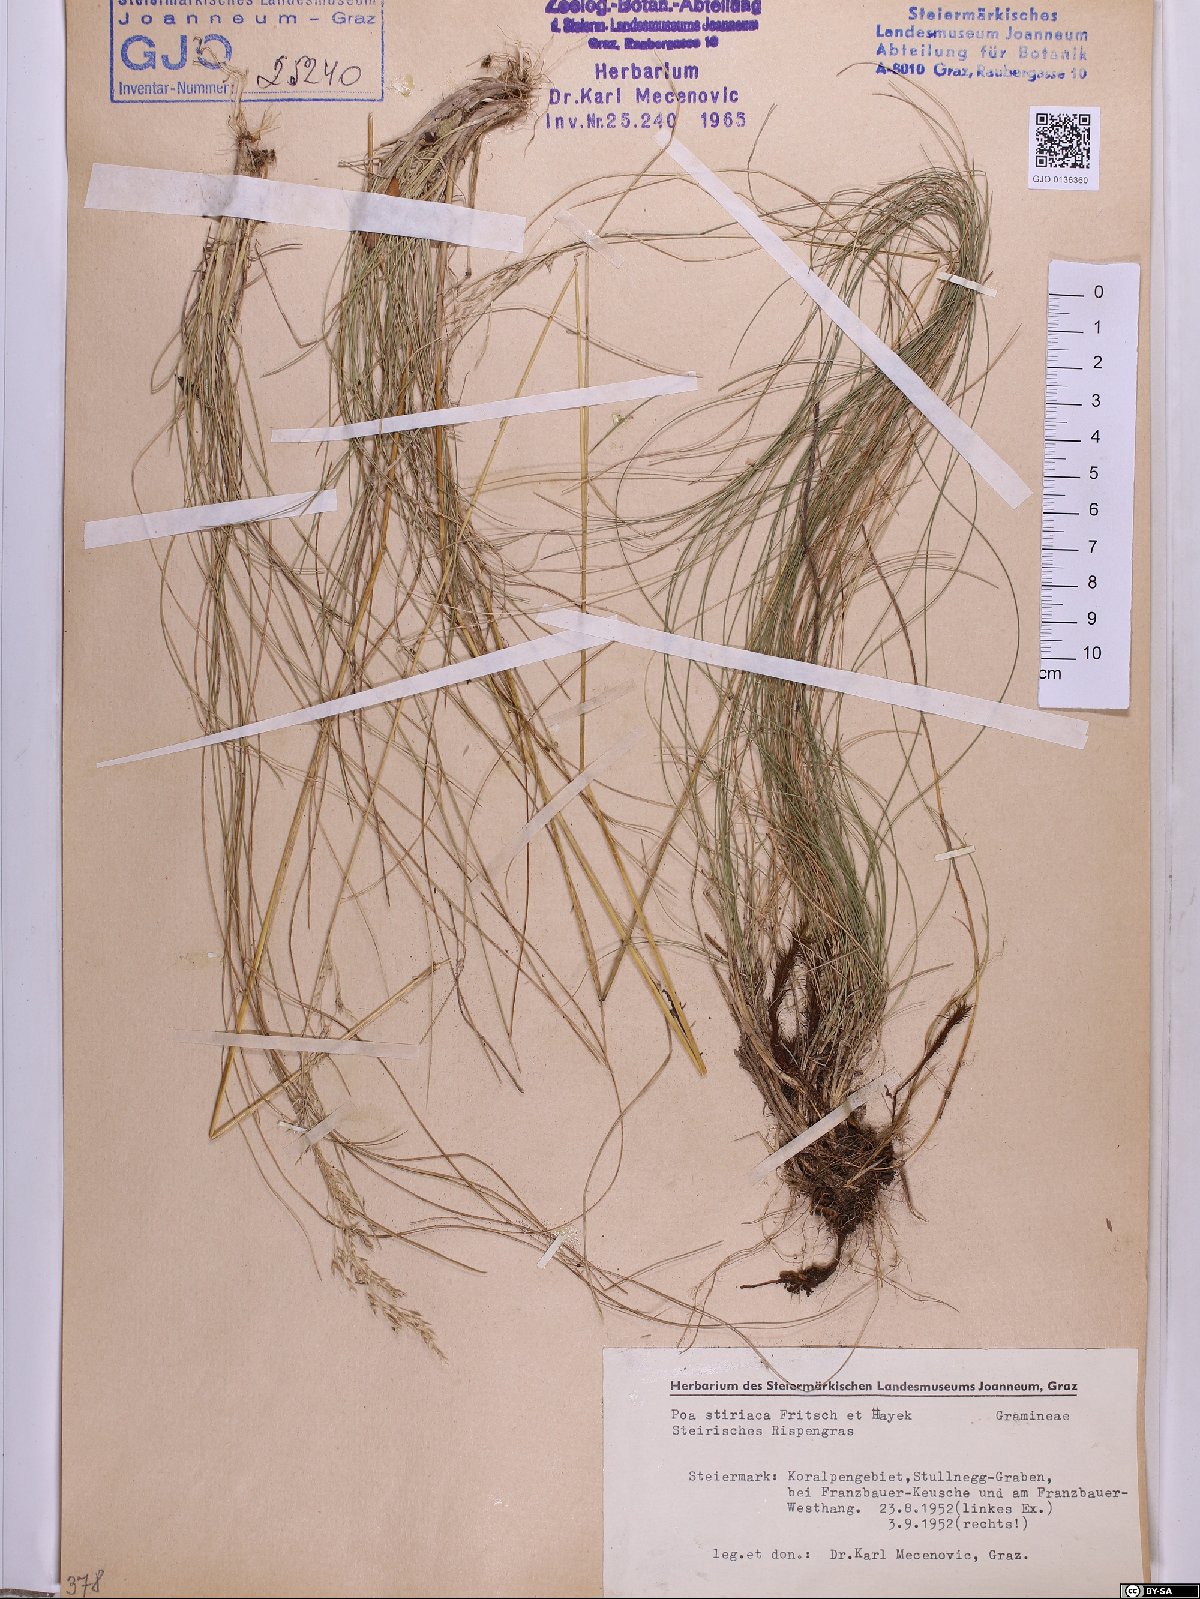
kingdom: Plantae
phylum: Tracheophyta
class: Liliopsida
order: Poales
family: Poaceae
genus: Poa
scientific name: Poa stiriaca
